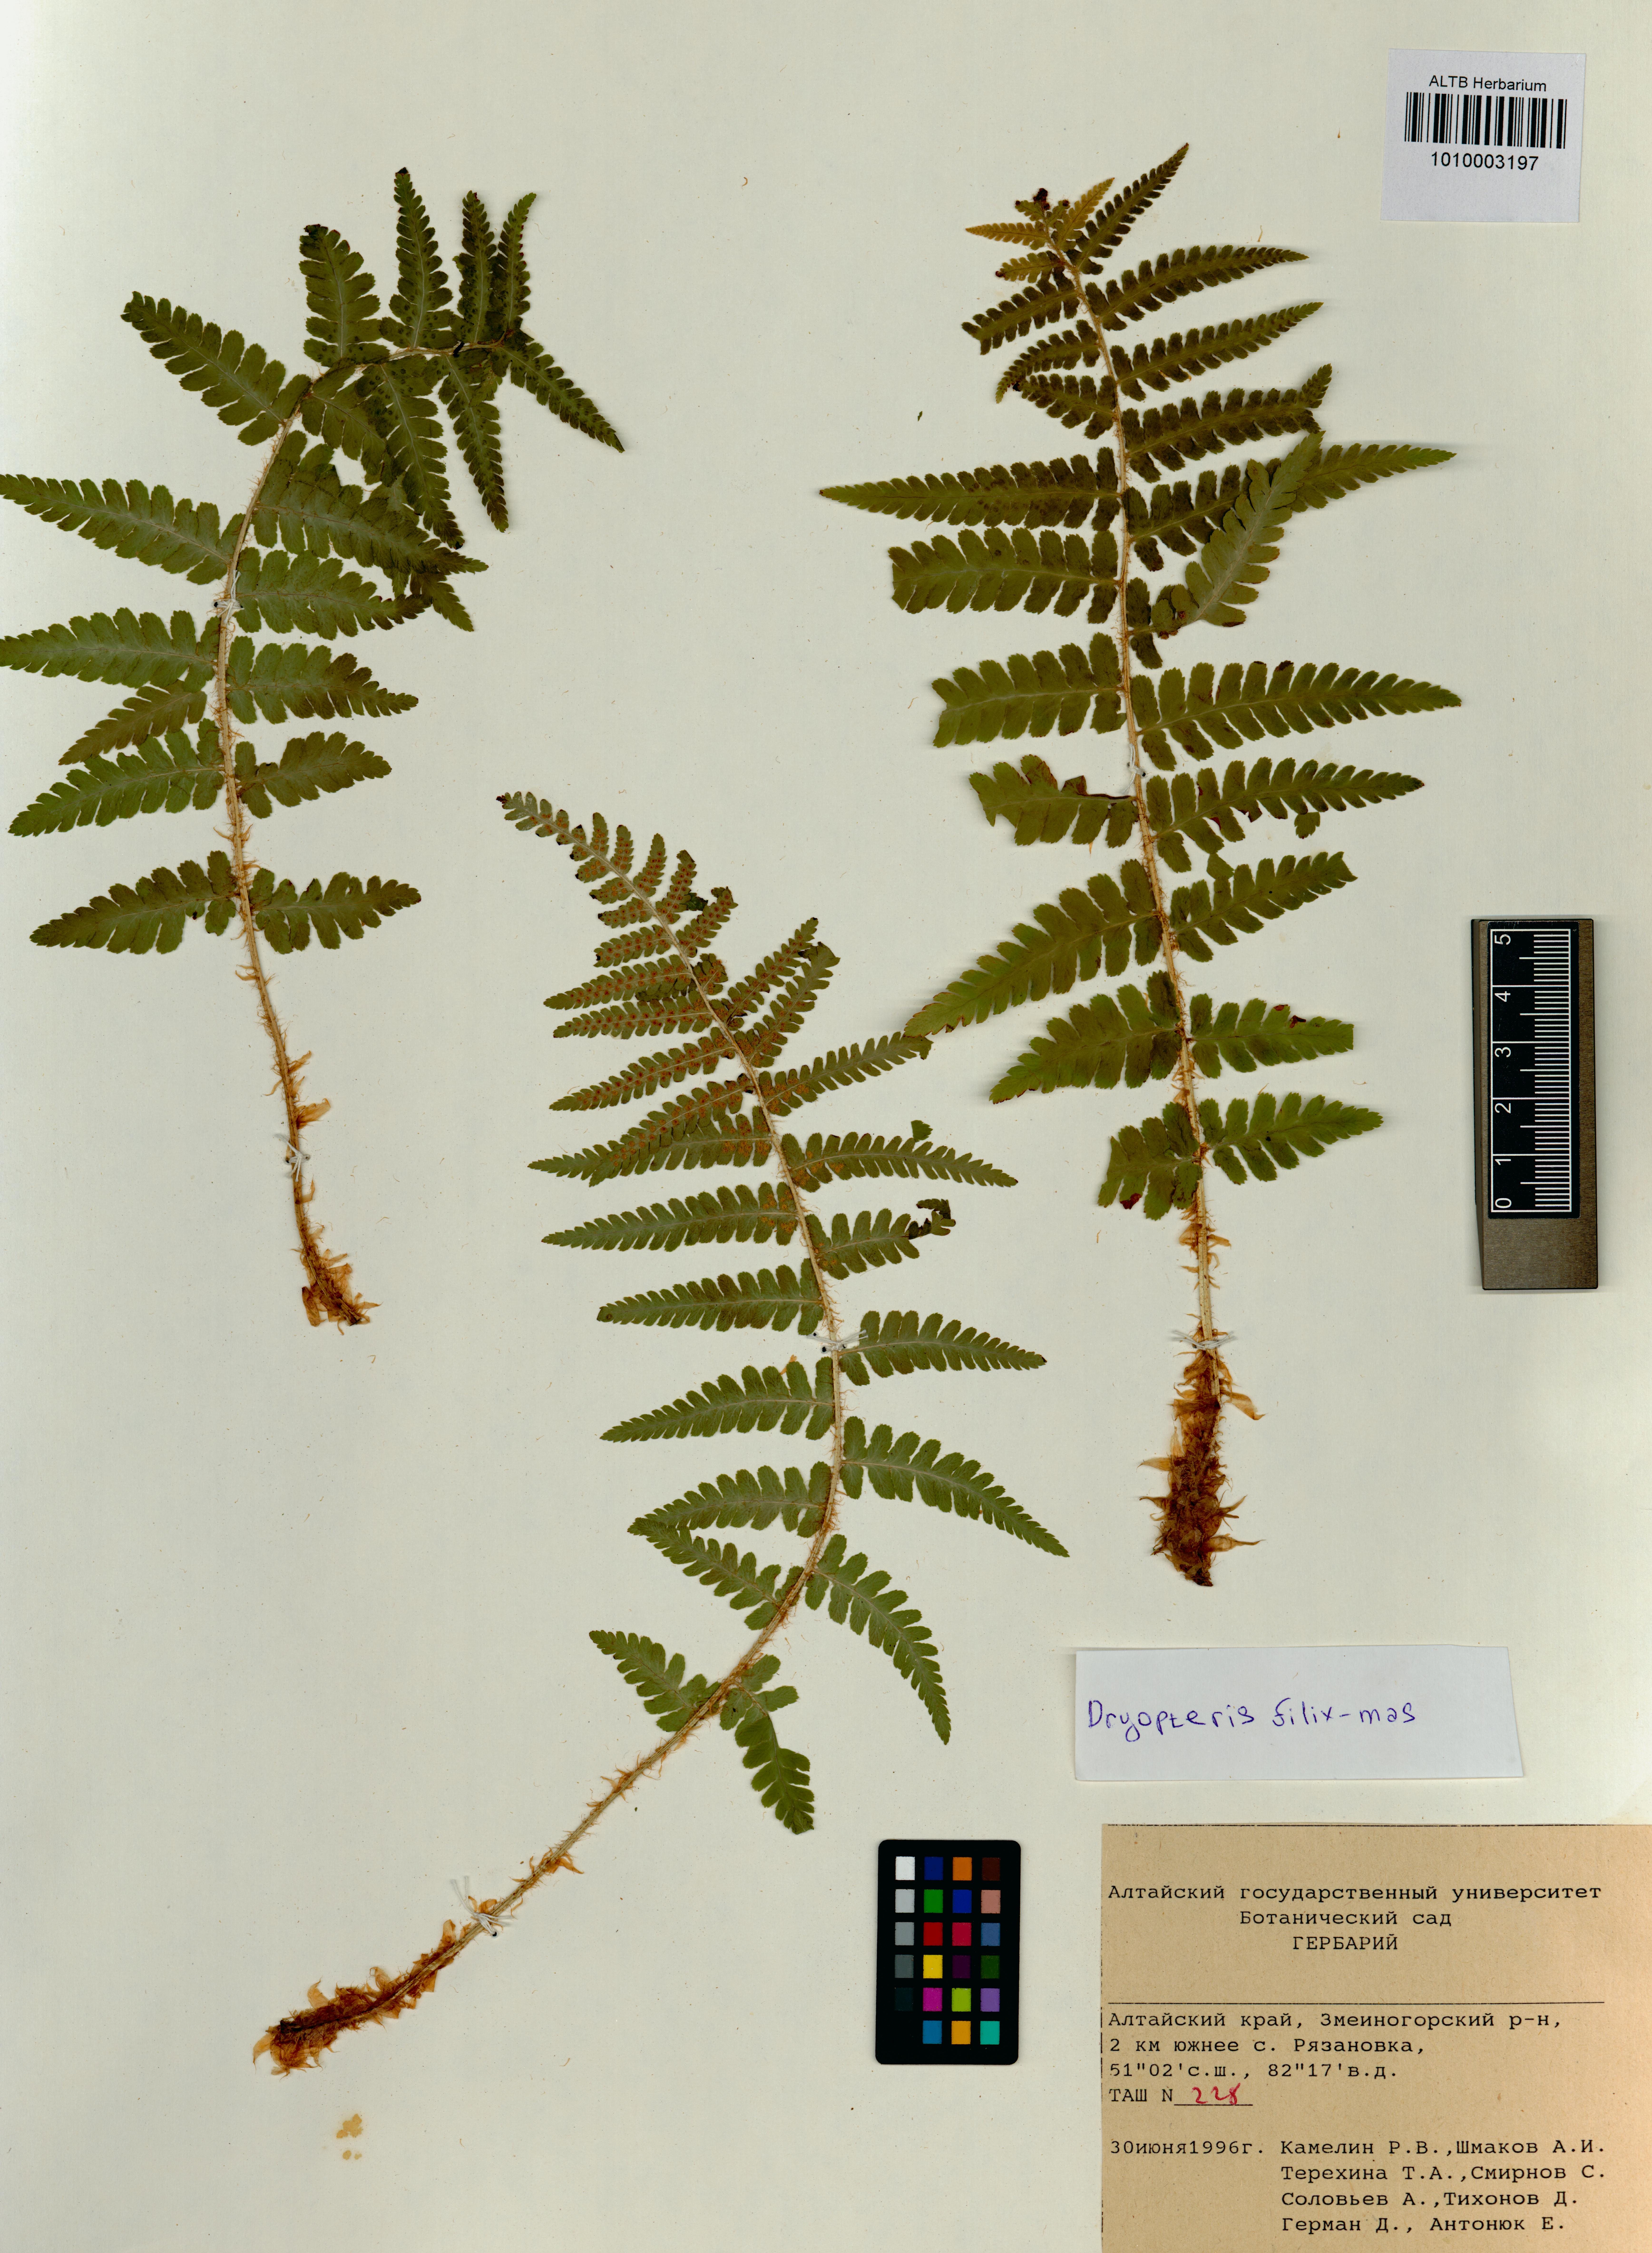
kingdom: Plantae
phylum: Tracheophyta
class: Polypodiopsida
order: Polypodiales
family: Dryopteridaceae
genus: Dryopteris
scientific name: Dryopteris filix-mas
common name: Male fern
